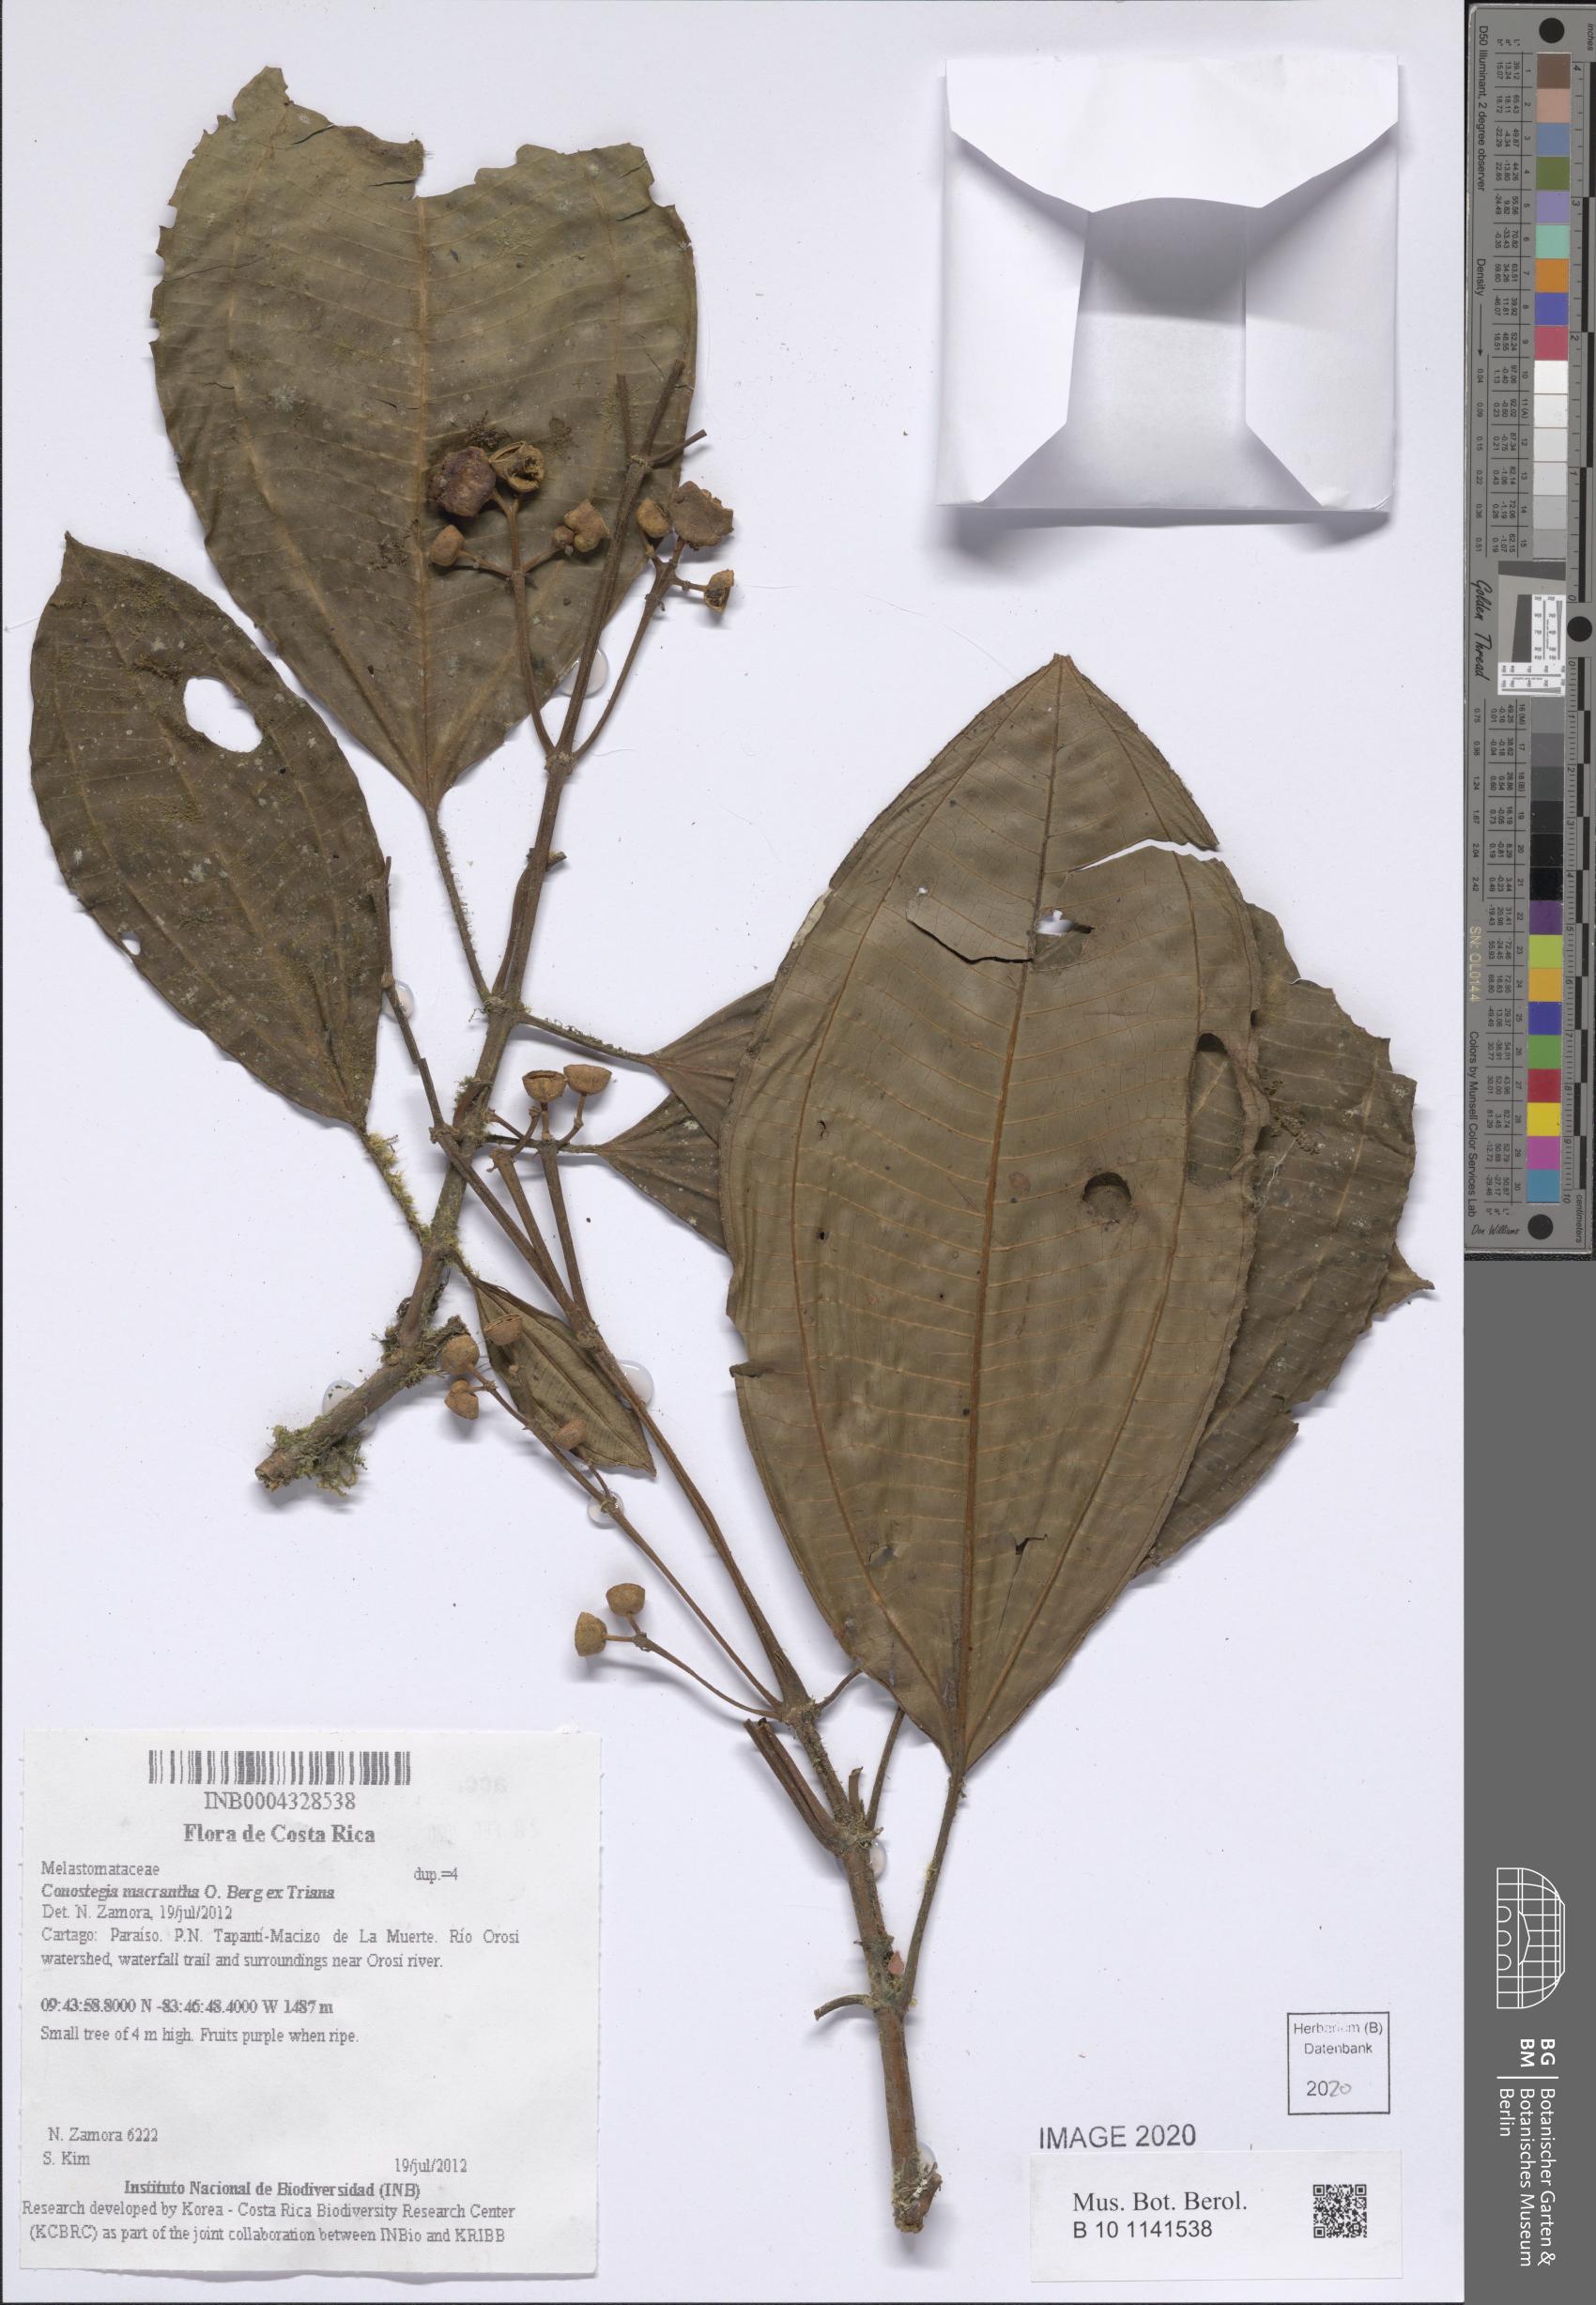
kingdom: Plantae
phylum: Tracheophyta
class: Magnoliopsida
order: Myrtales
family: Melastomataceae
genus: Miconia
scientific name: Miconia conomacrantha
